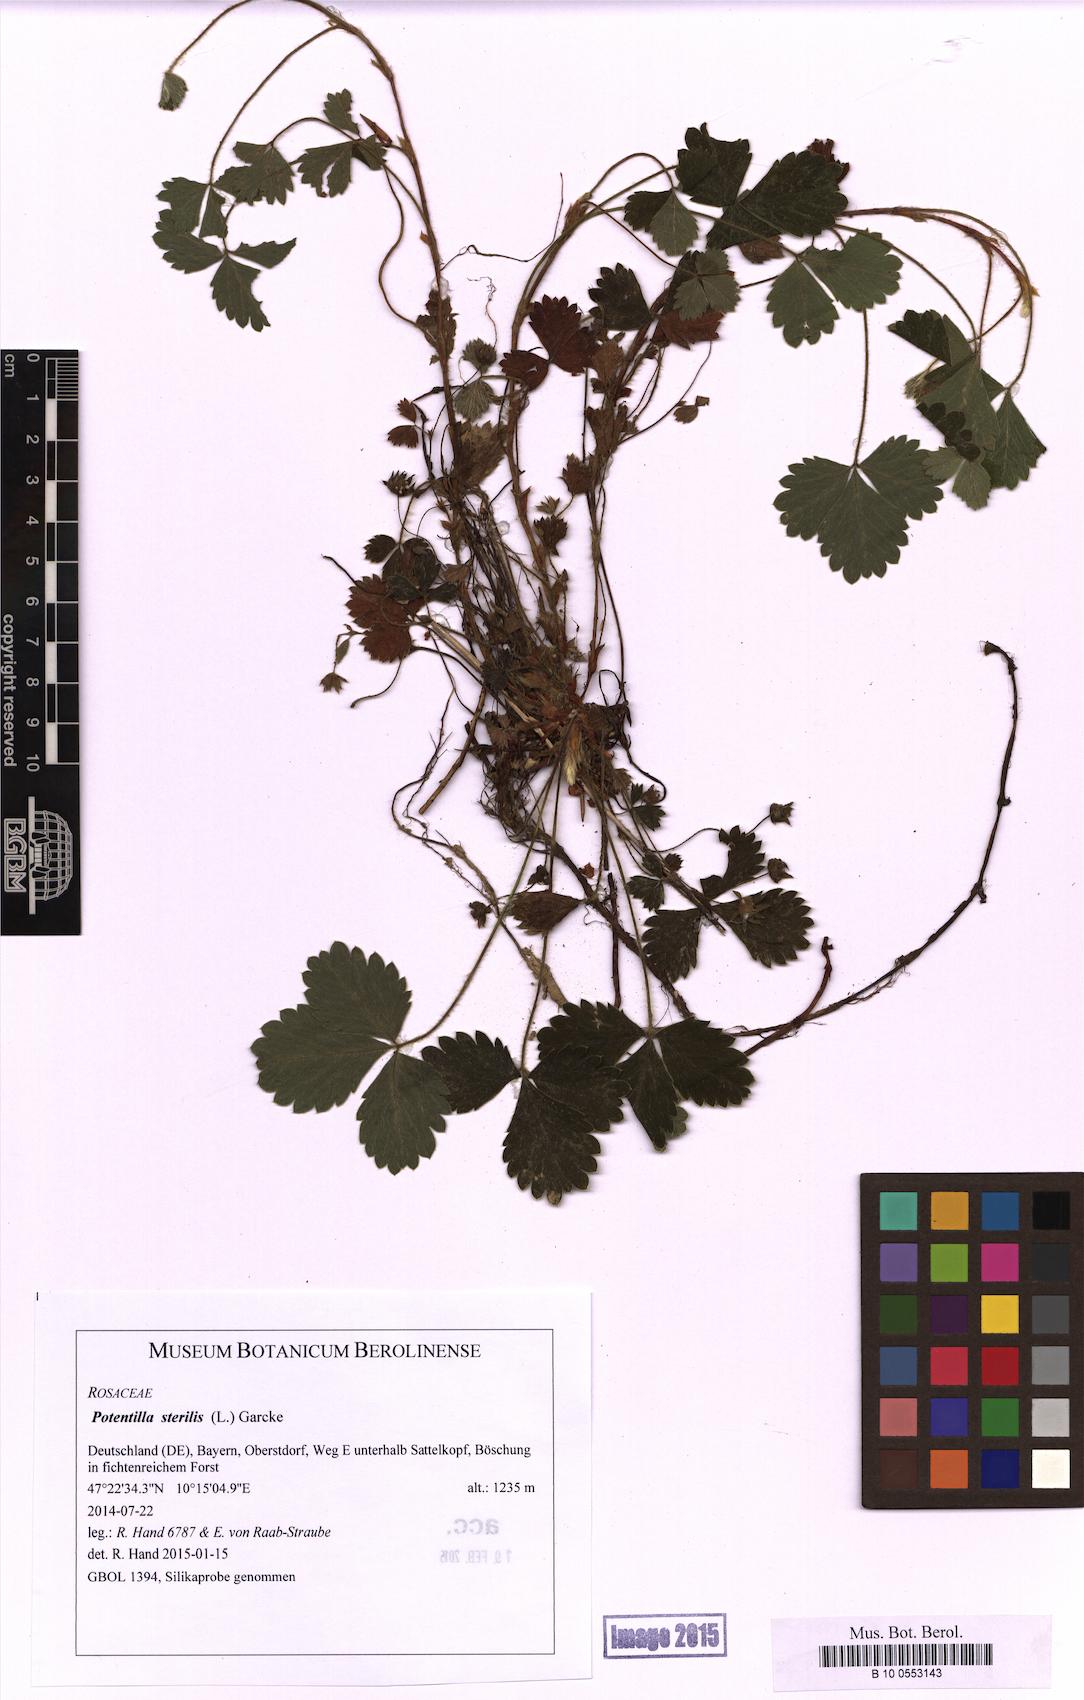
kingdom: Plantae
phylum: Tracheophyta
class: Magnoliopsida
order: Rosales
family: Rosaceae
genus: Potentilla
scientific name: Potentilla sterilis
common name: Barren strawberry
